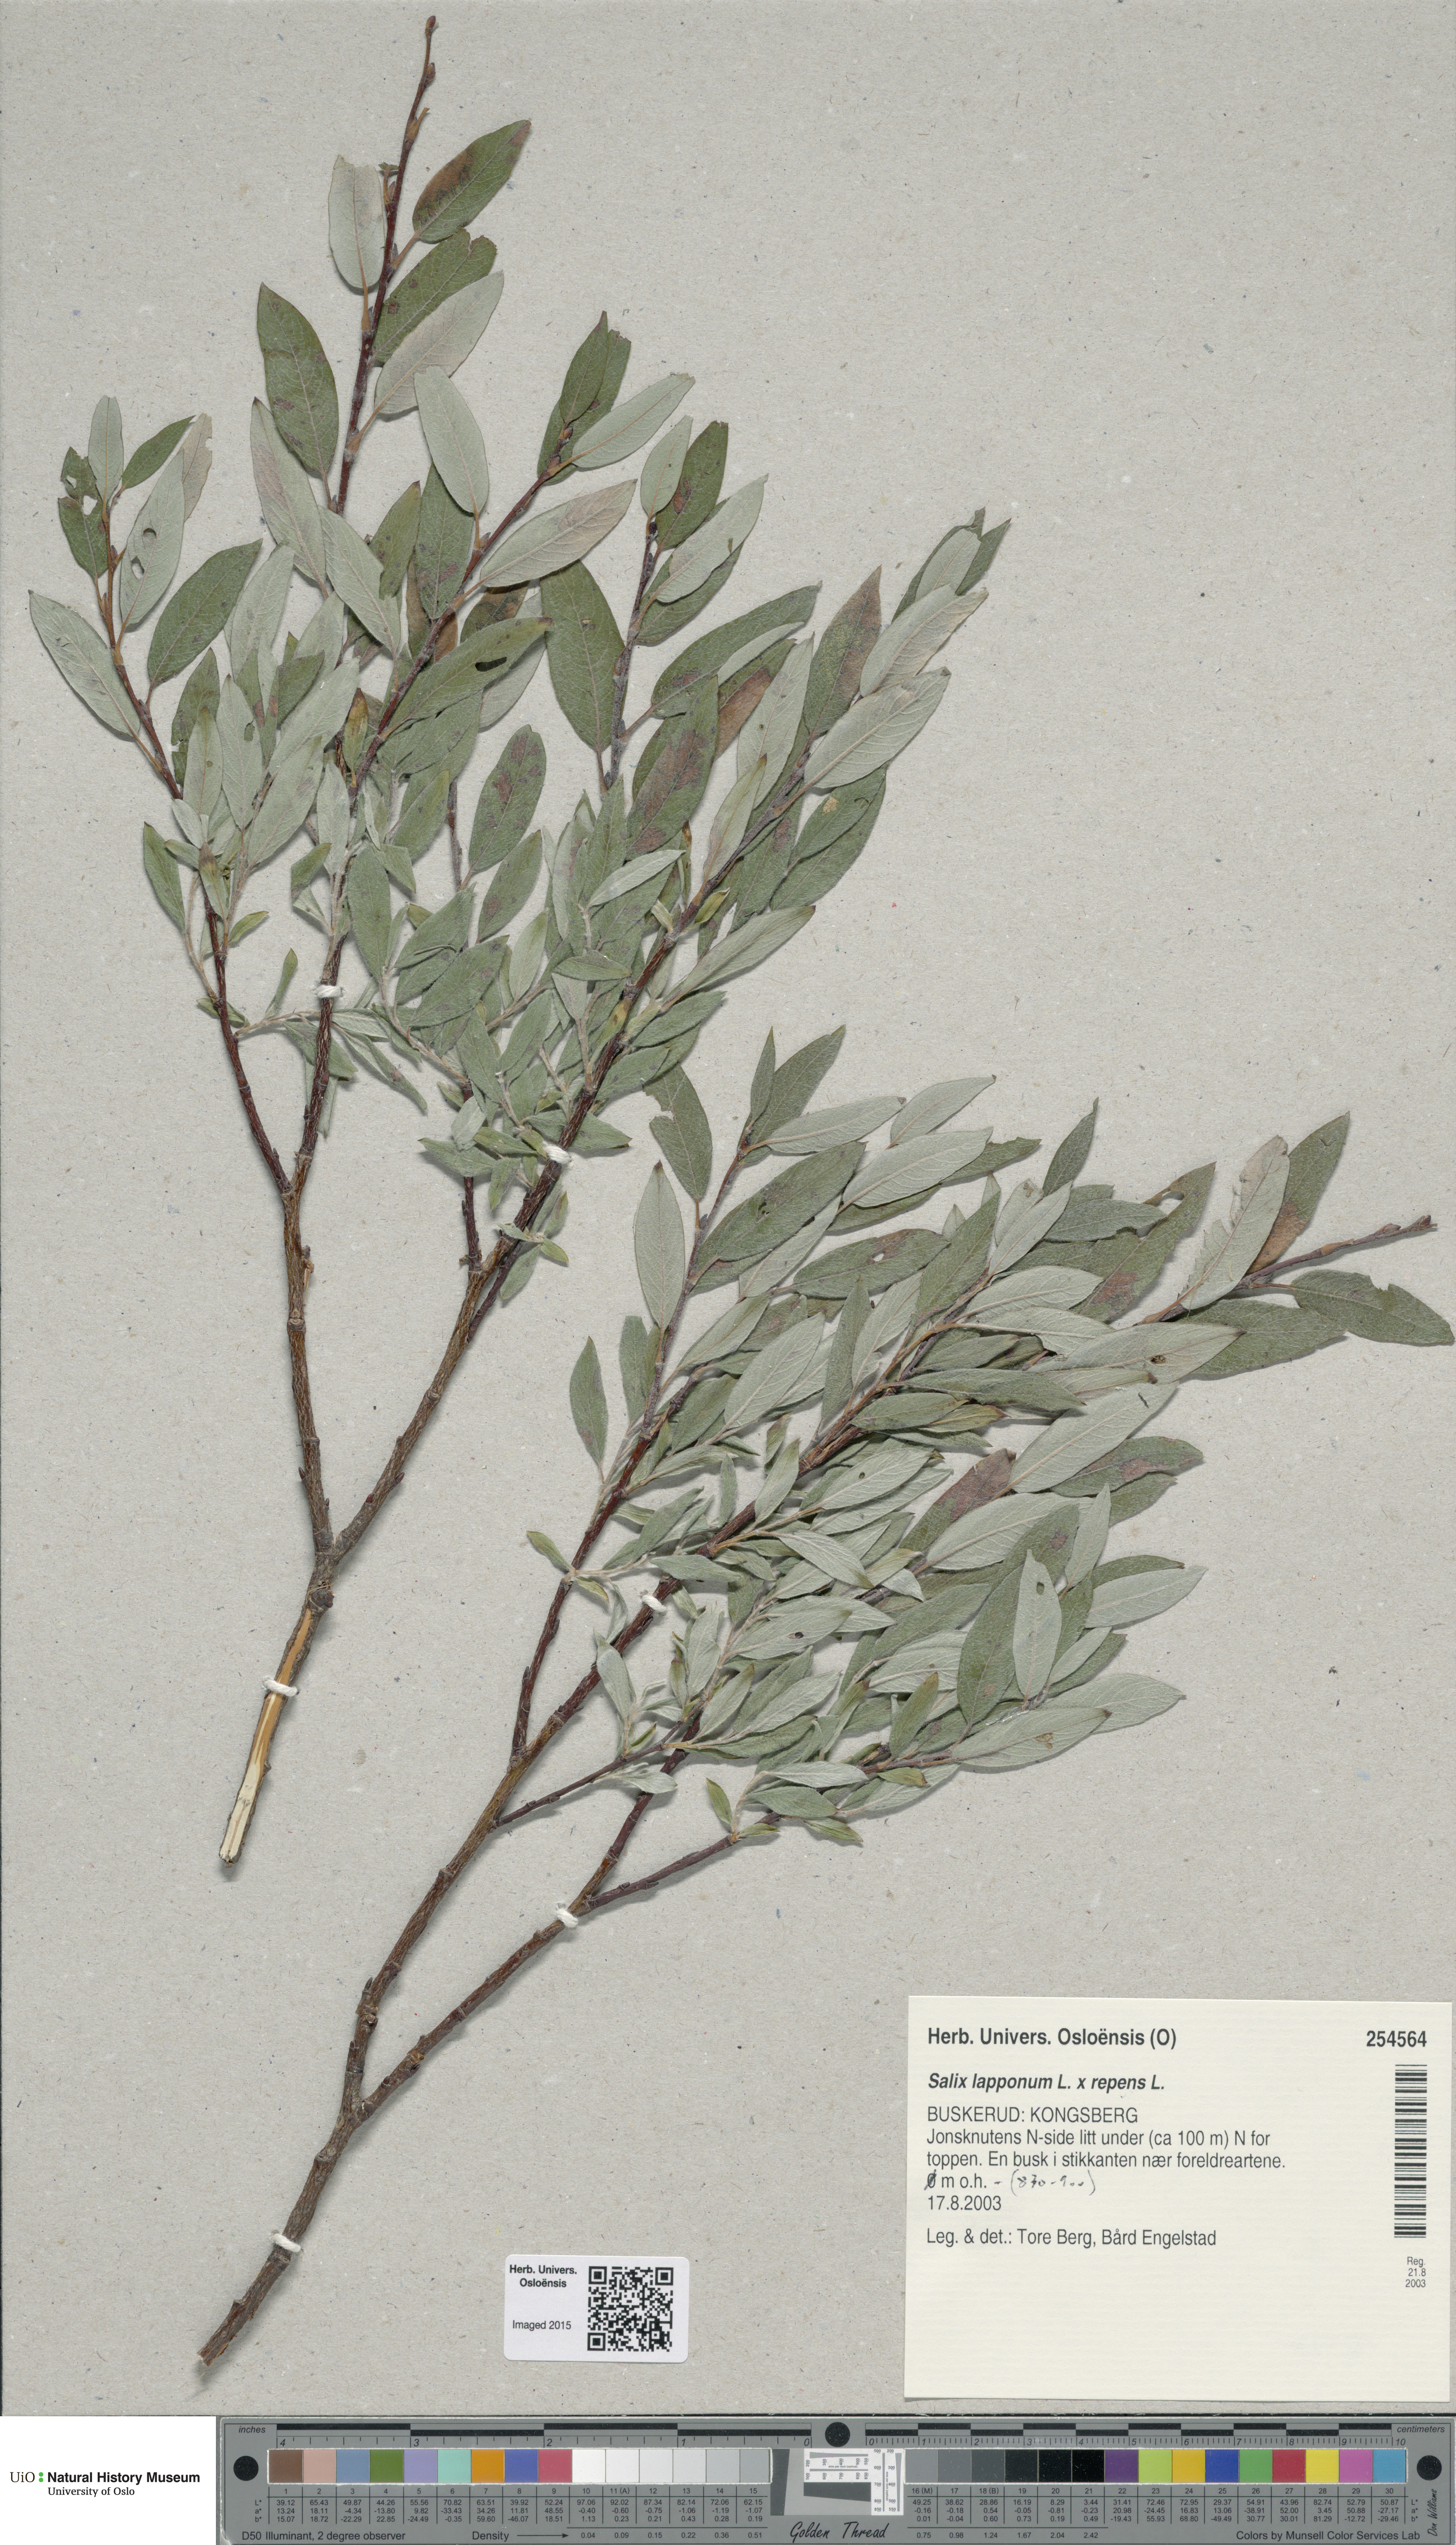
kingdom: Plantae
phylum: Tracheophyta
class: Magnoliopsida
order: Malpighiales
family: Salicaceae
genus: Salix
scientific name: Salix
